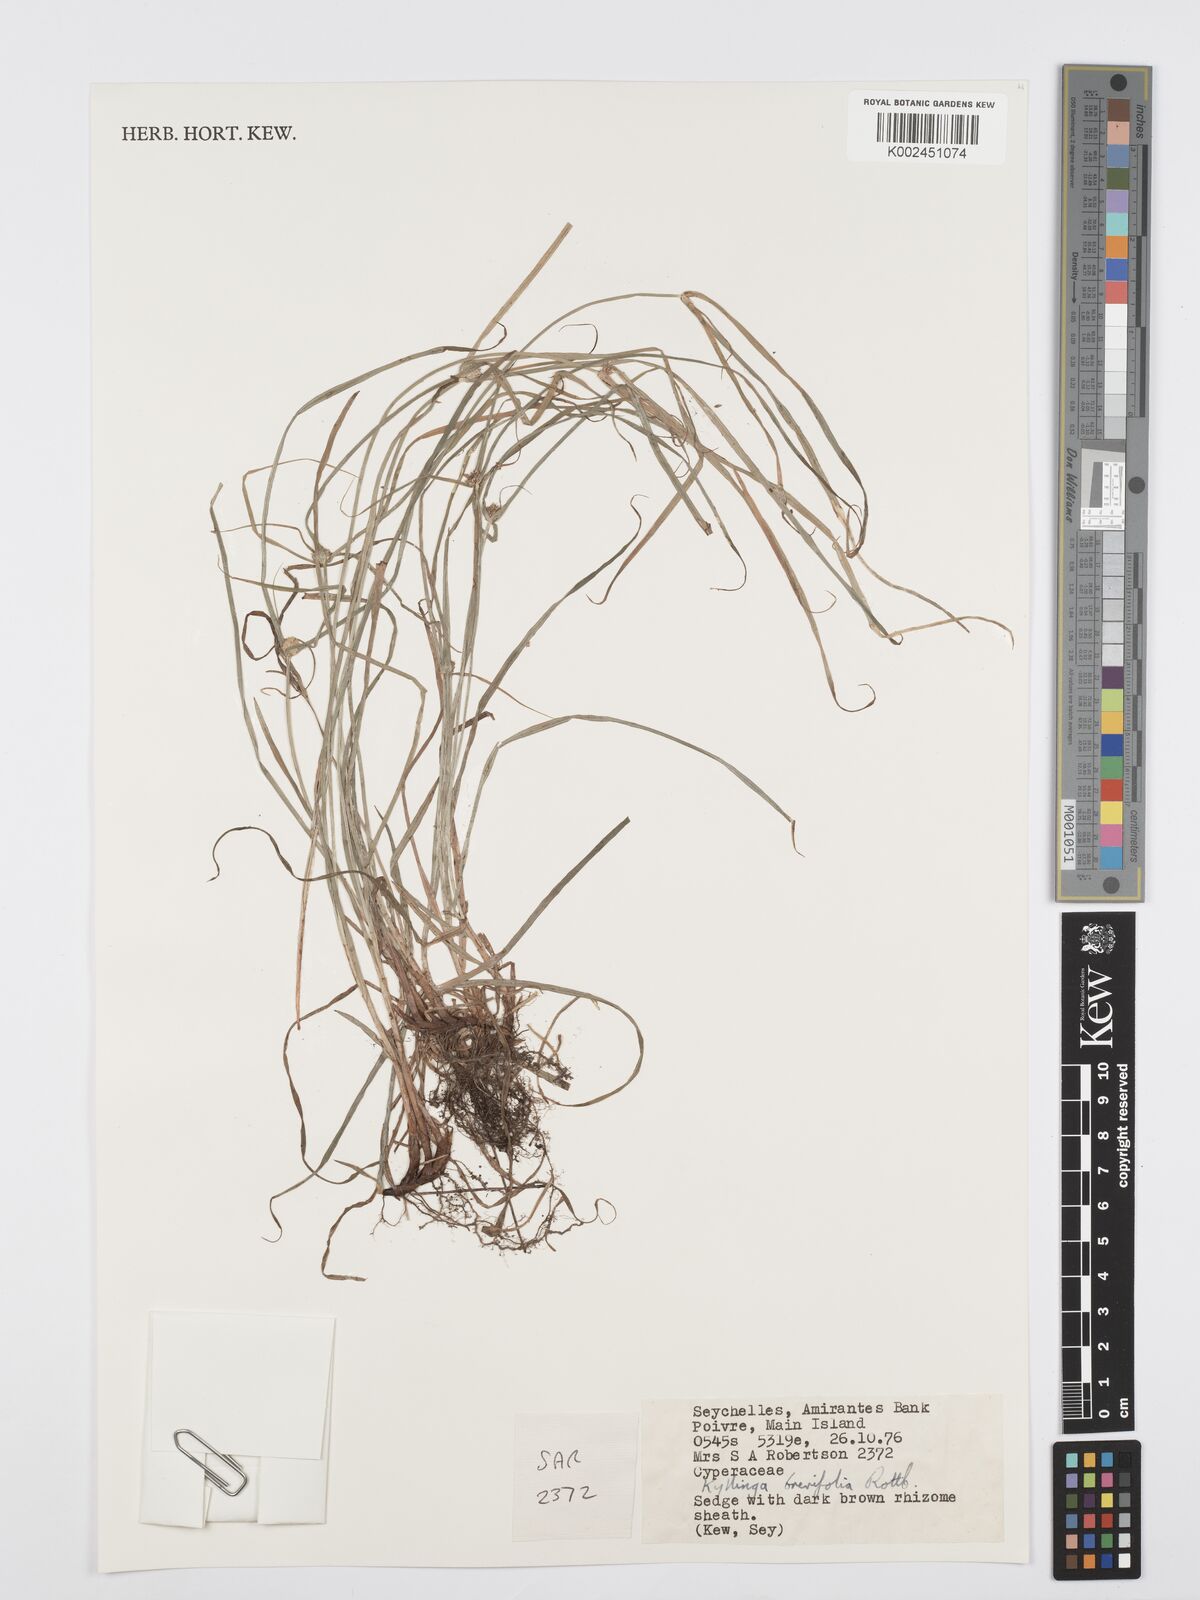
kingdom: Plantae
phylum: Tracheophyta
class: Liliopsida
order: Poales
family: Cyperaceae
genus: Cyperus
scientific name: Cyperus brevifolius
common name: Globe kyllinga
